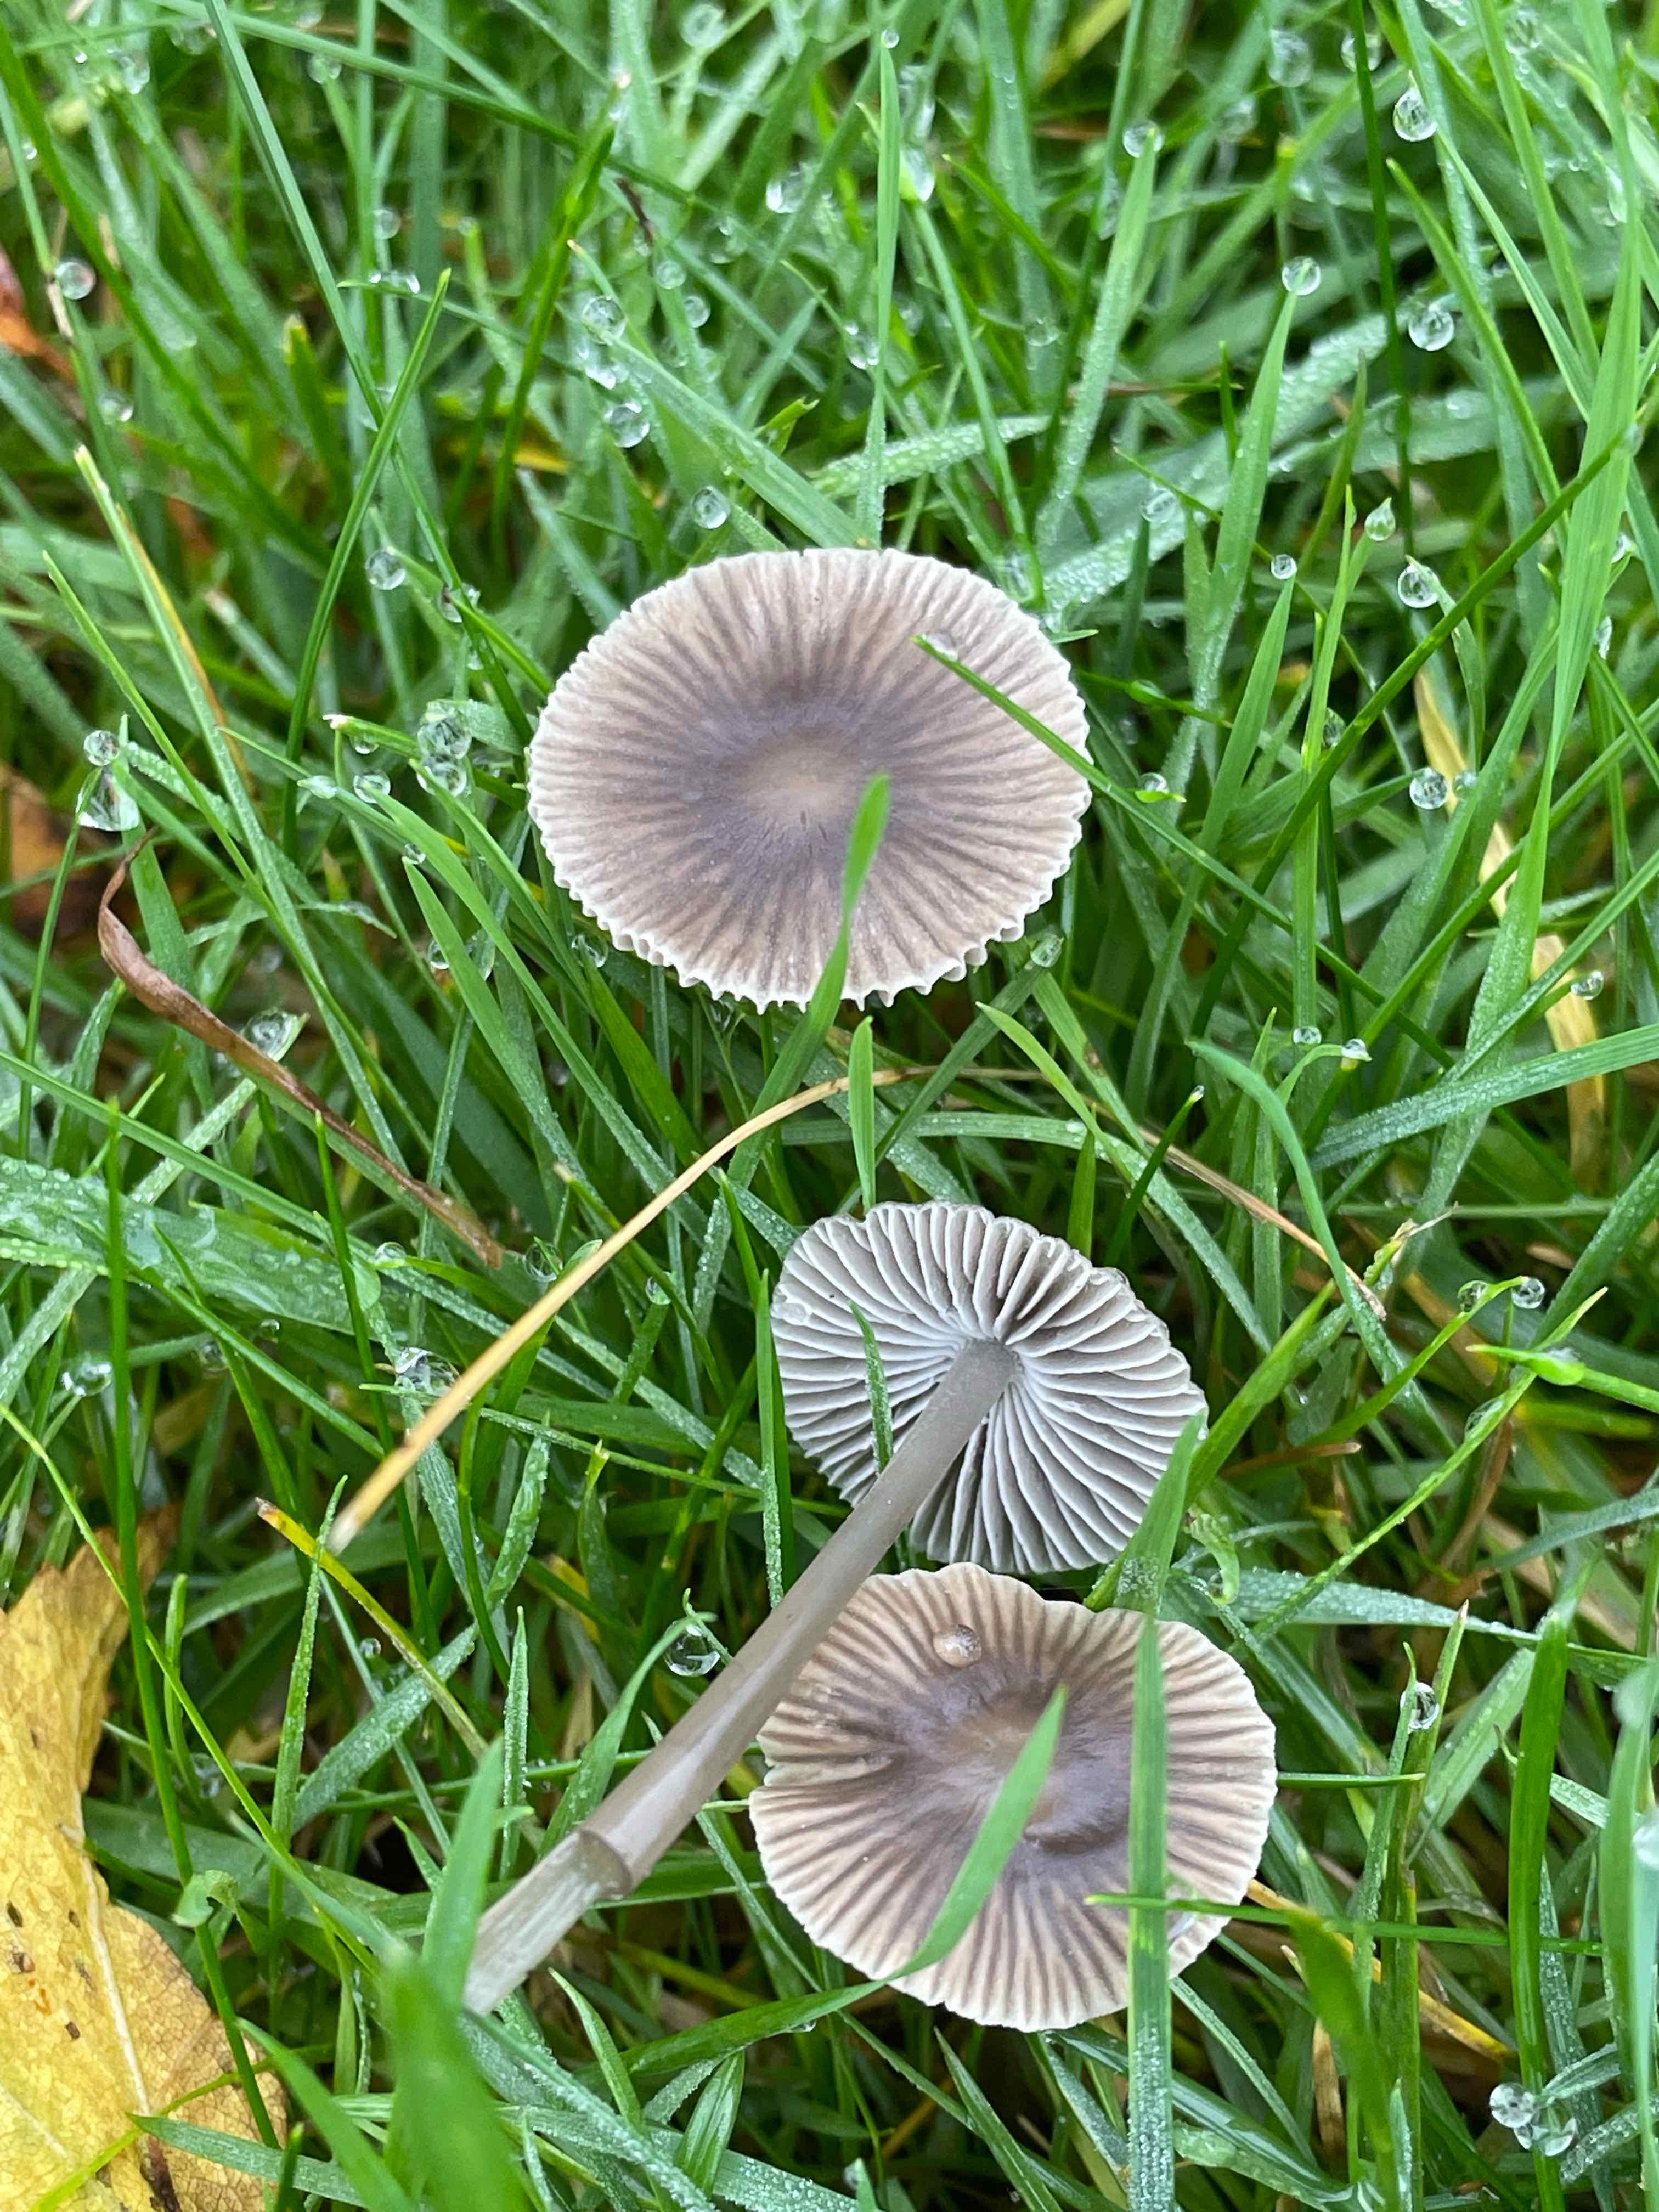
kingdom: Fungi
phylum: Basidiomycota
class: Agaricomycetes
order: Agaricales
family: Mycenaceae
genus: Mycena
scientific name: Mycena aetites
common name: plæne-huesvamp
